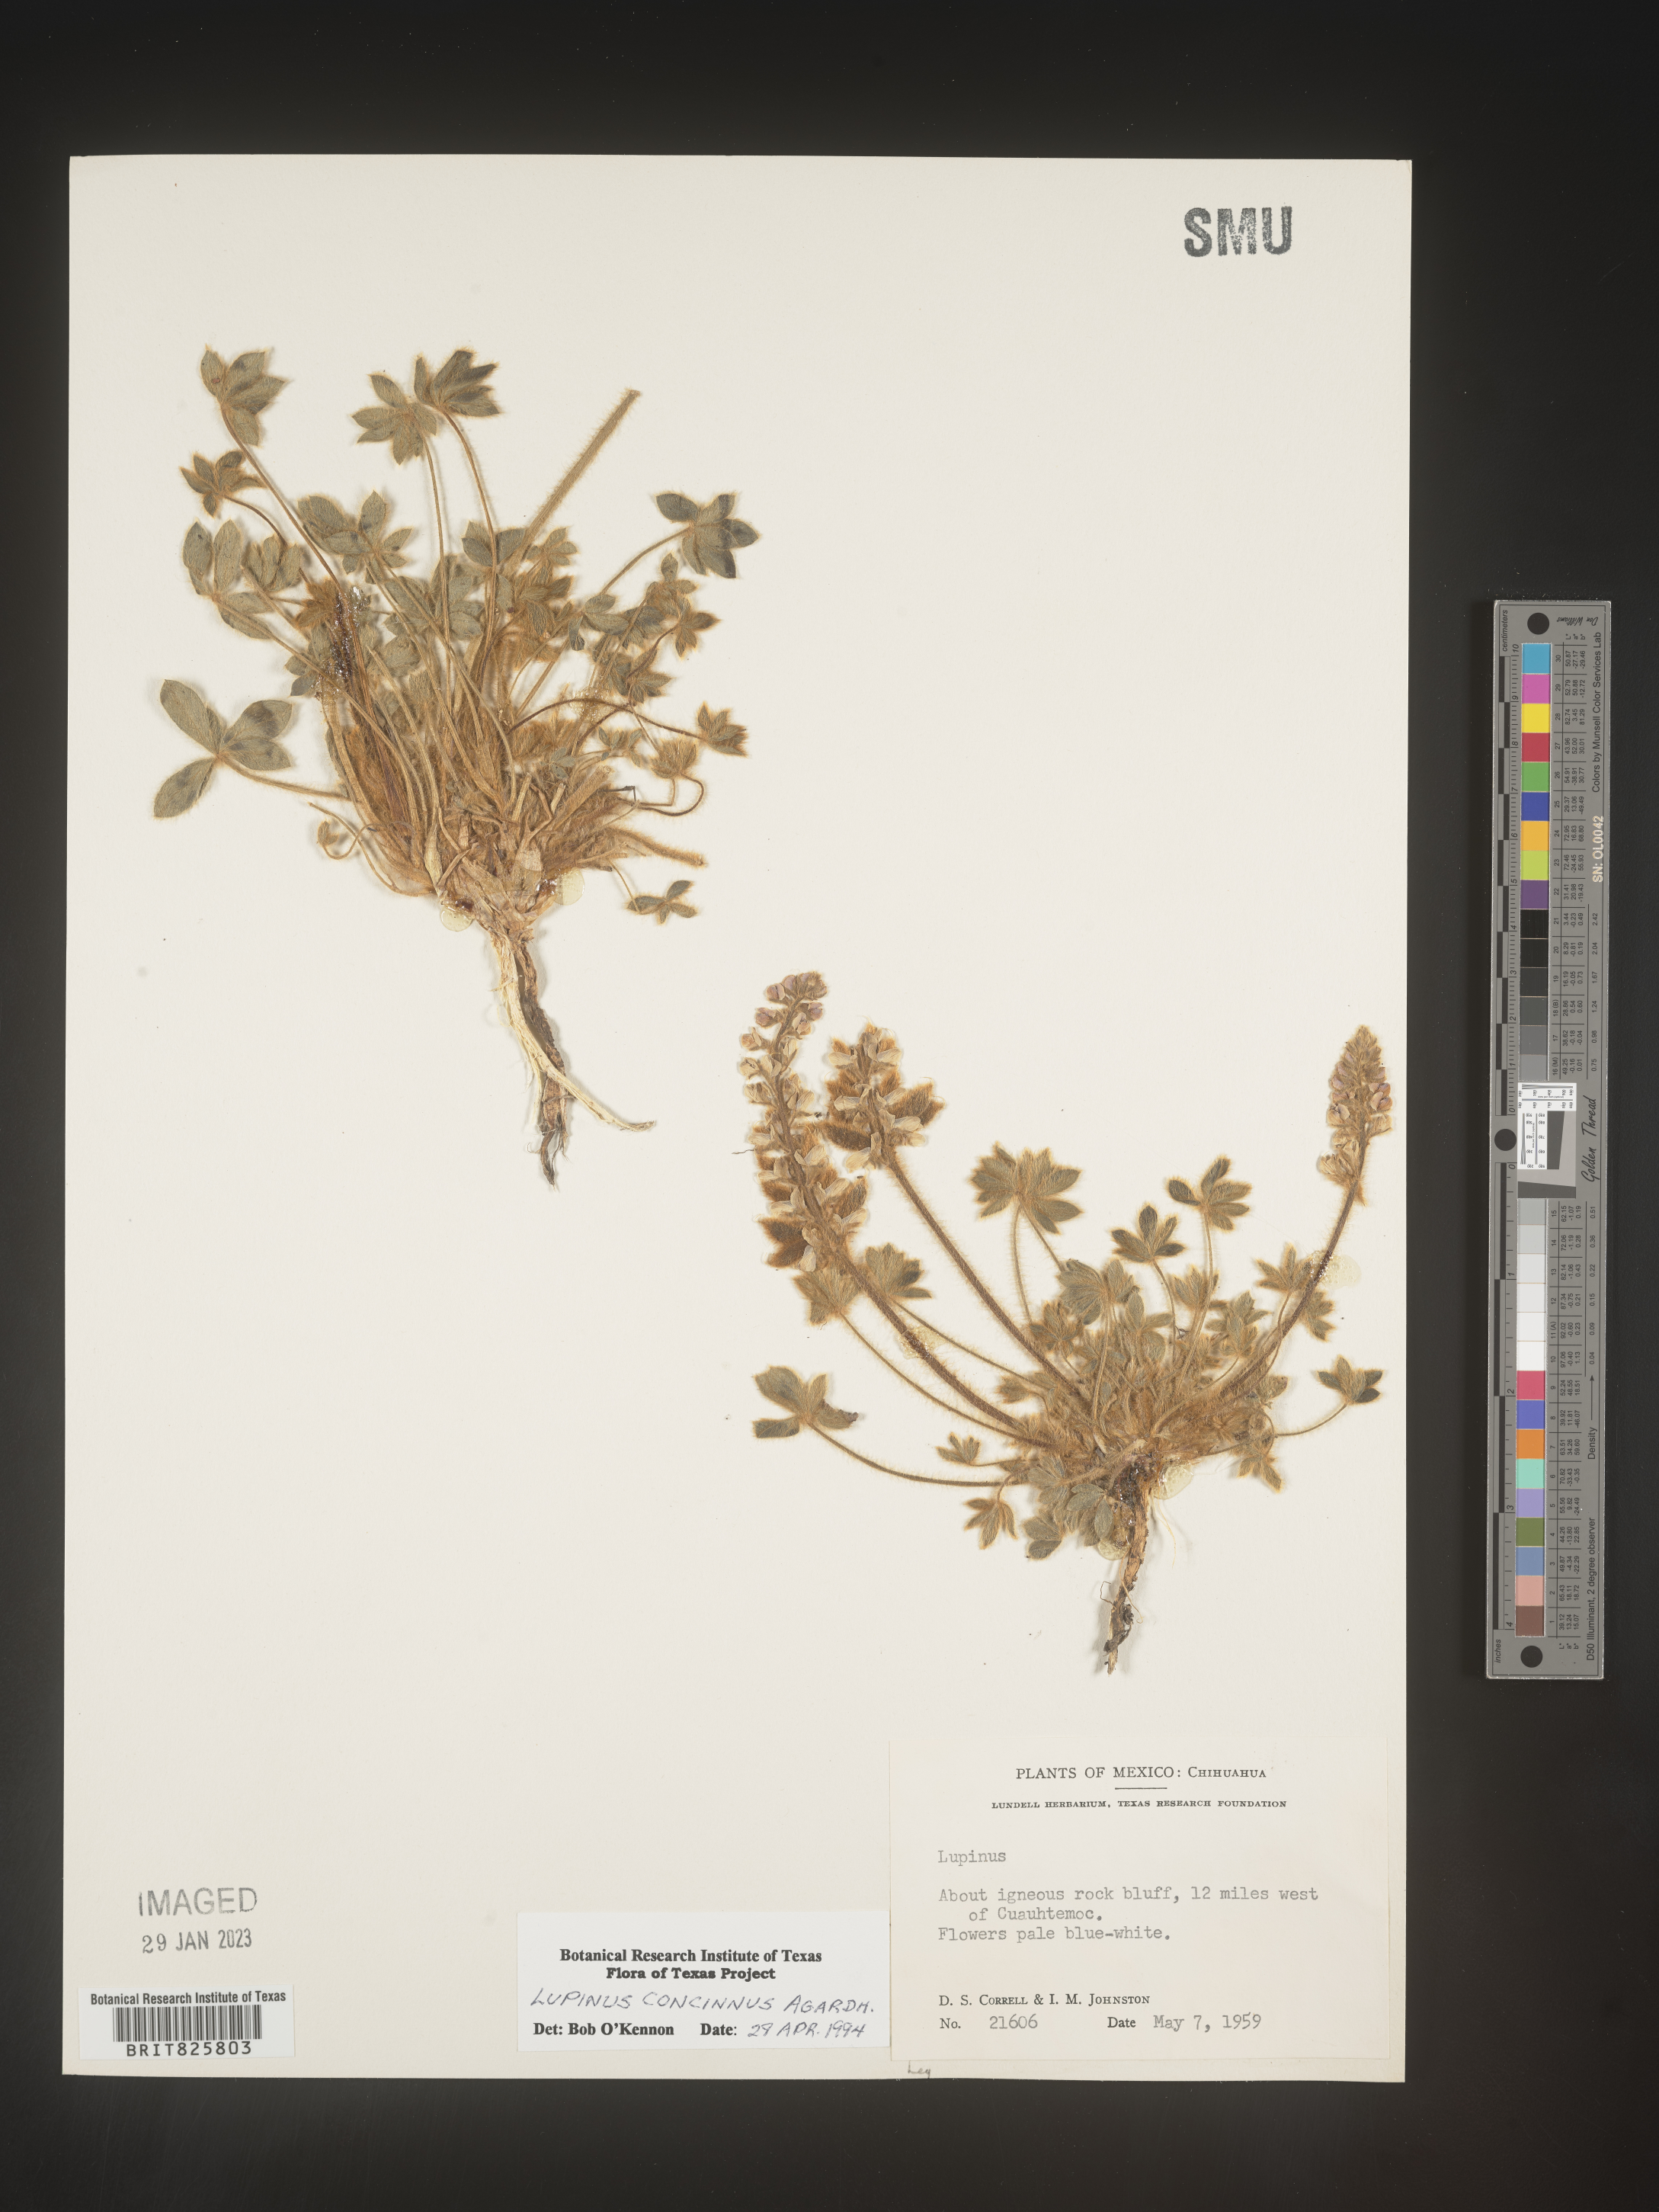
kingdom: Plantae
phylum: Tracheophyta
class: Magnoliopsida
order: Fabales
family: Fabaceae
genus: Lupinus
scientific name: Lupinus
